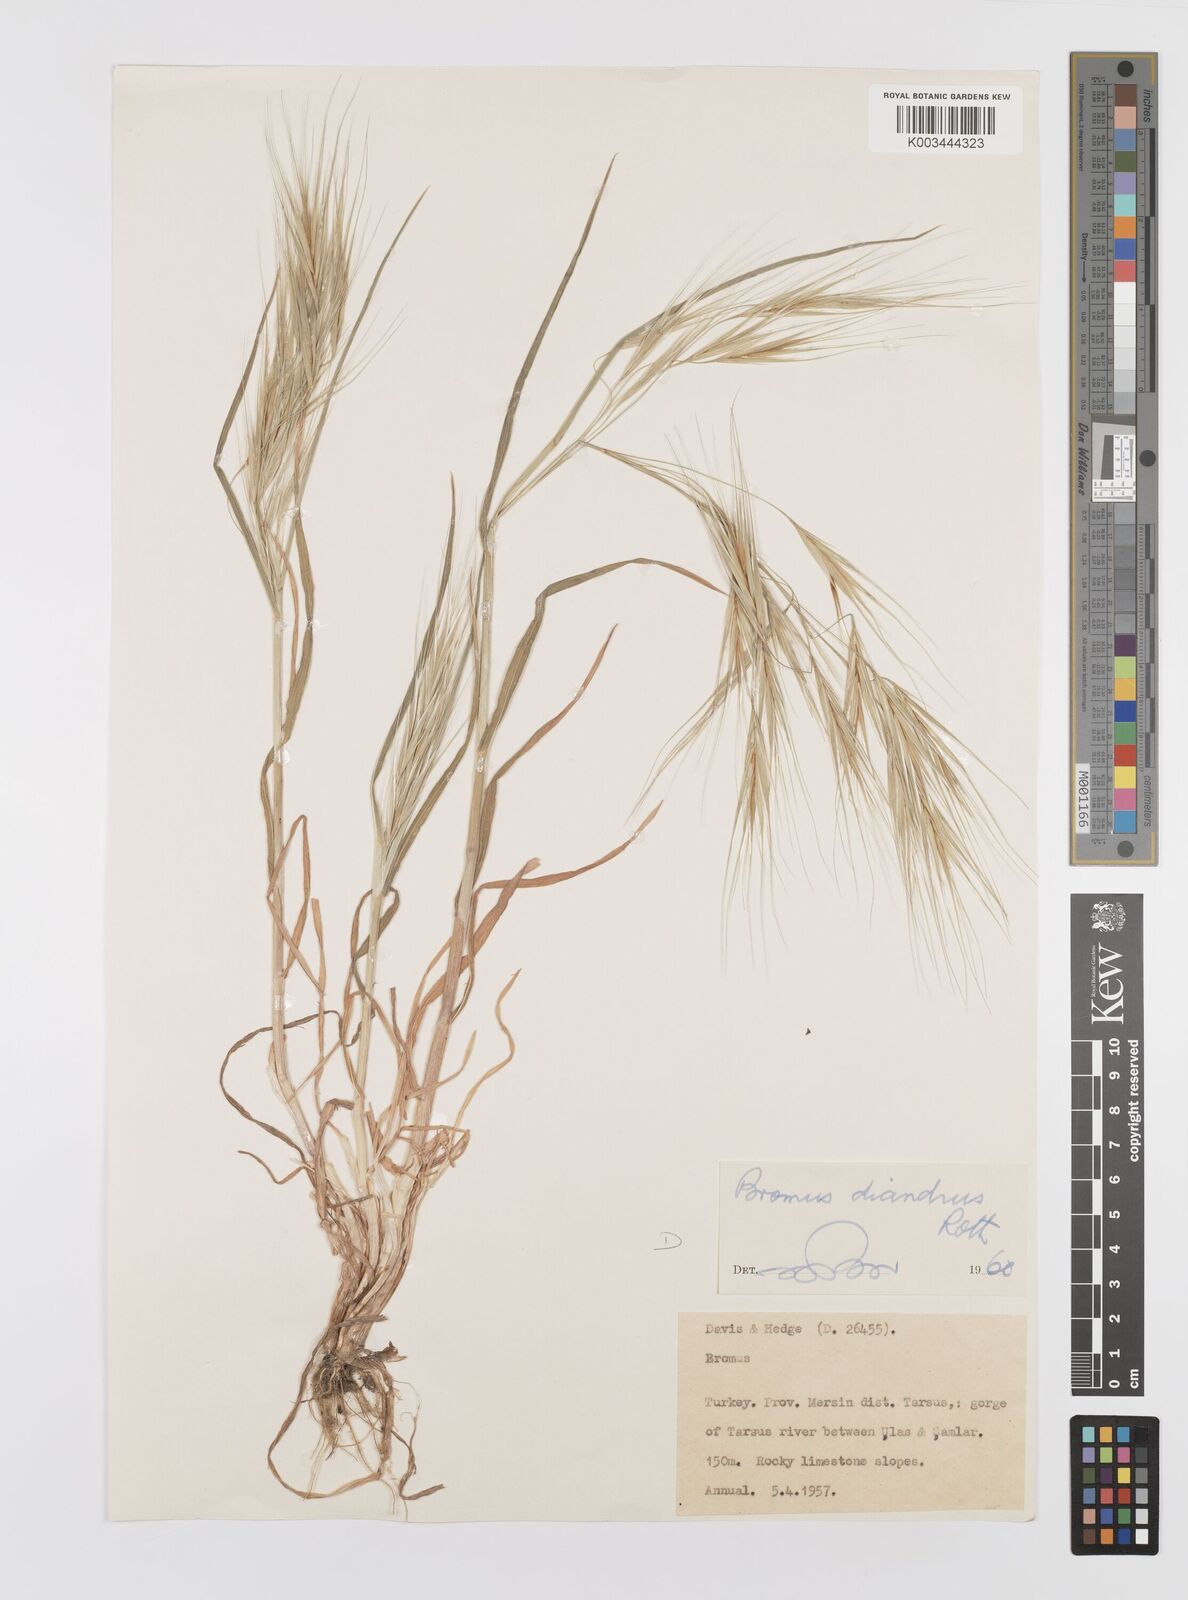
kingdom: Plantae
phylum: Tracheophyta
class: Liliopsida
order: Poales
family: Poaceae
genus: Bromus
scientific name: Bromus diandrus
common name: Ripgut brome
